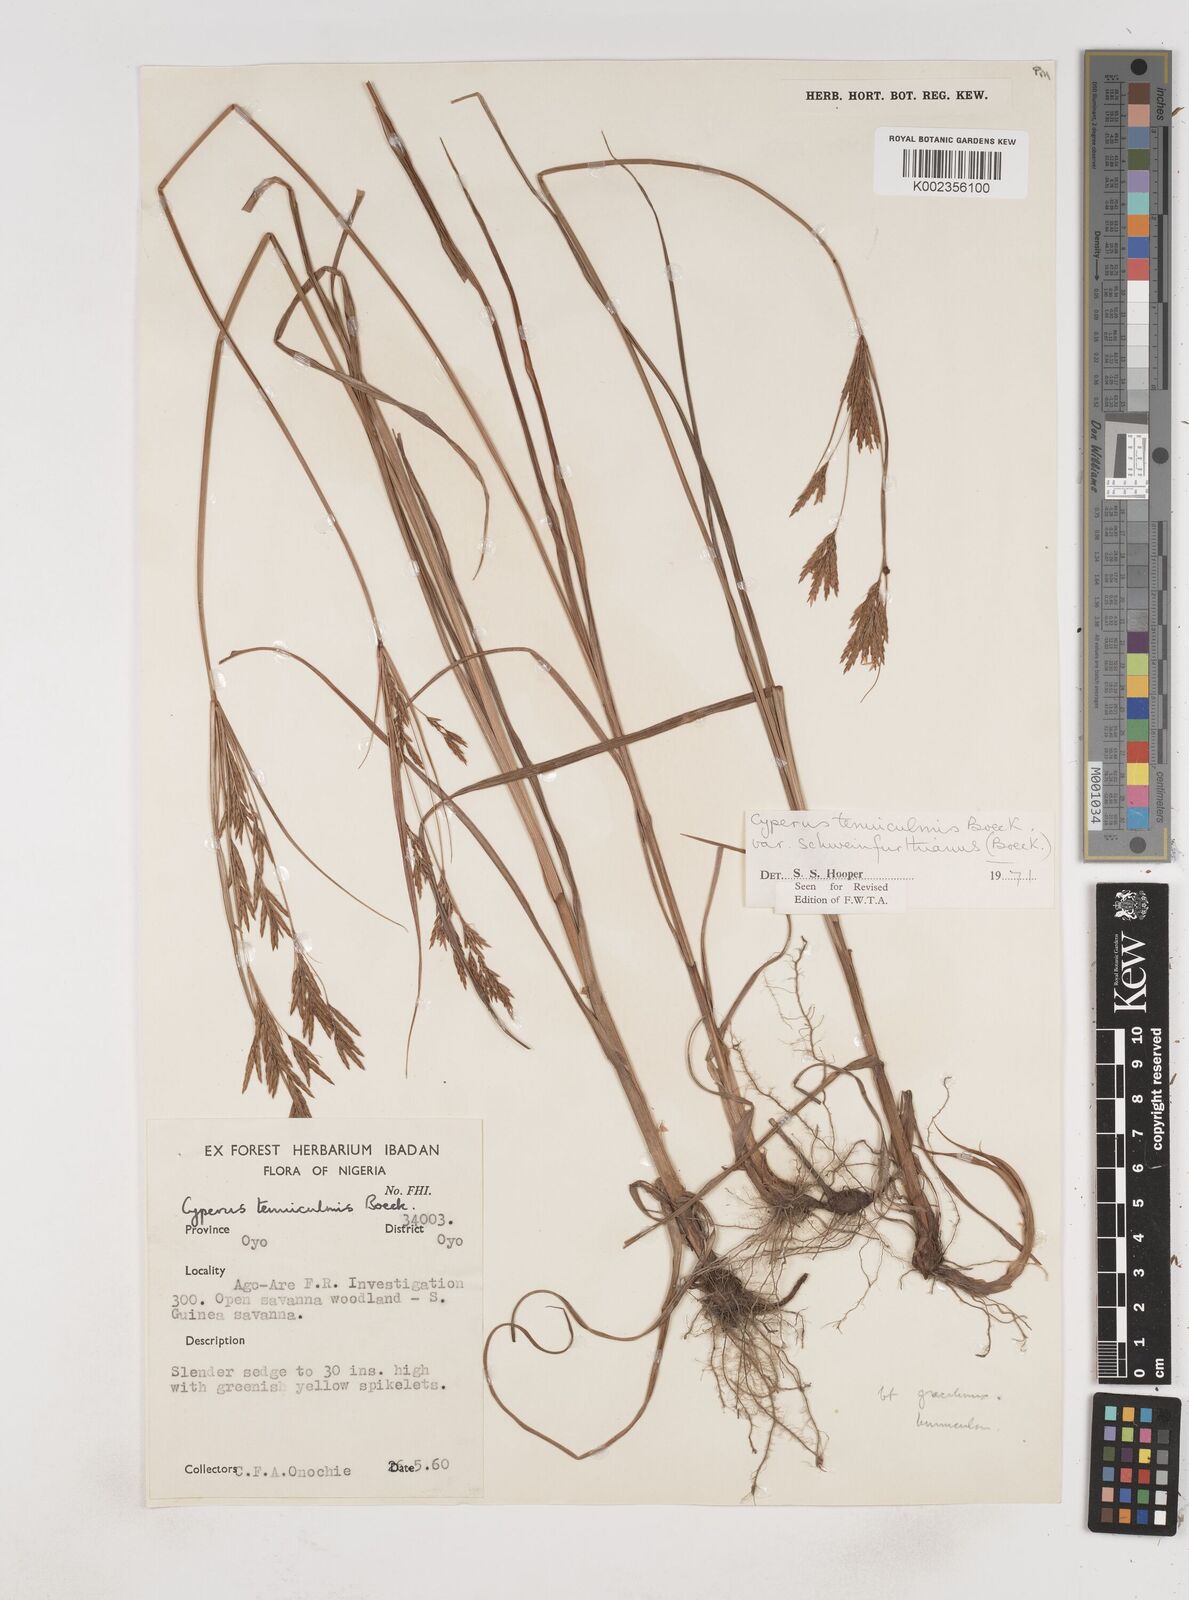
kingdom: Plantae
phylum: Tracheophyta
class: Liliopsida
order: Poales
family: Cyperaceae
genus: Cyperus
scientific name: Cyperus tenuiculmis
